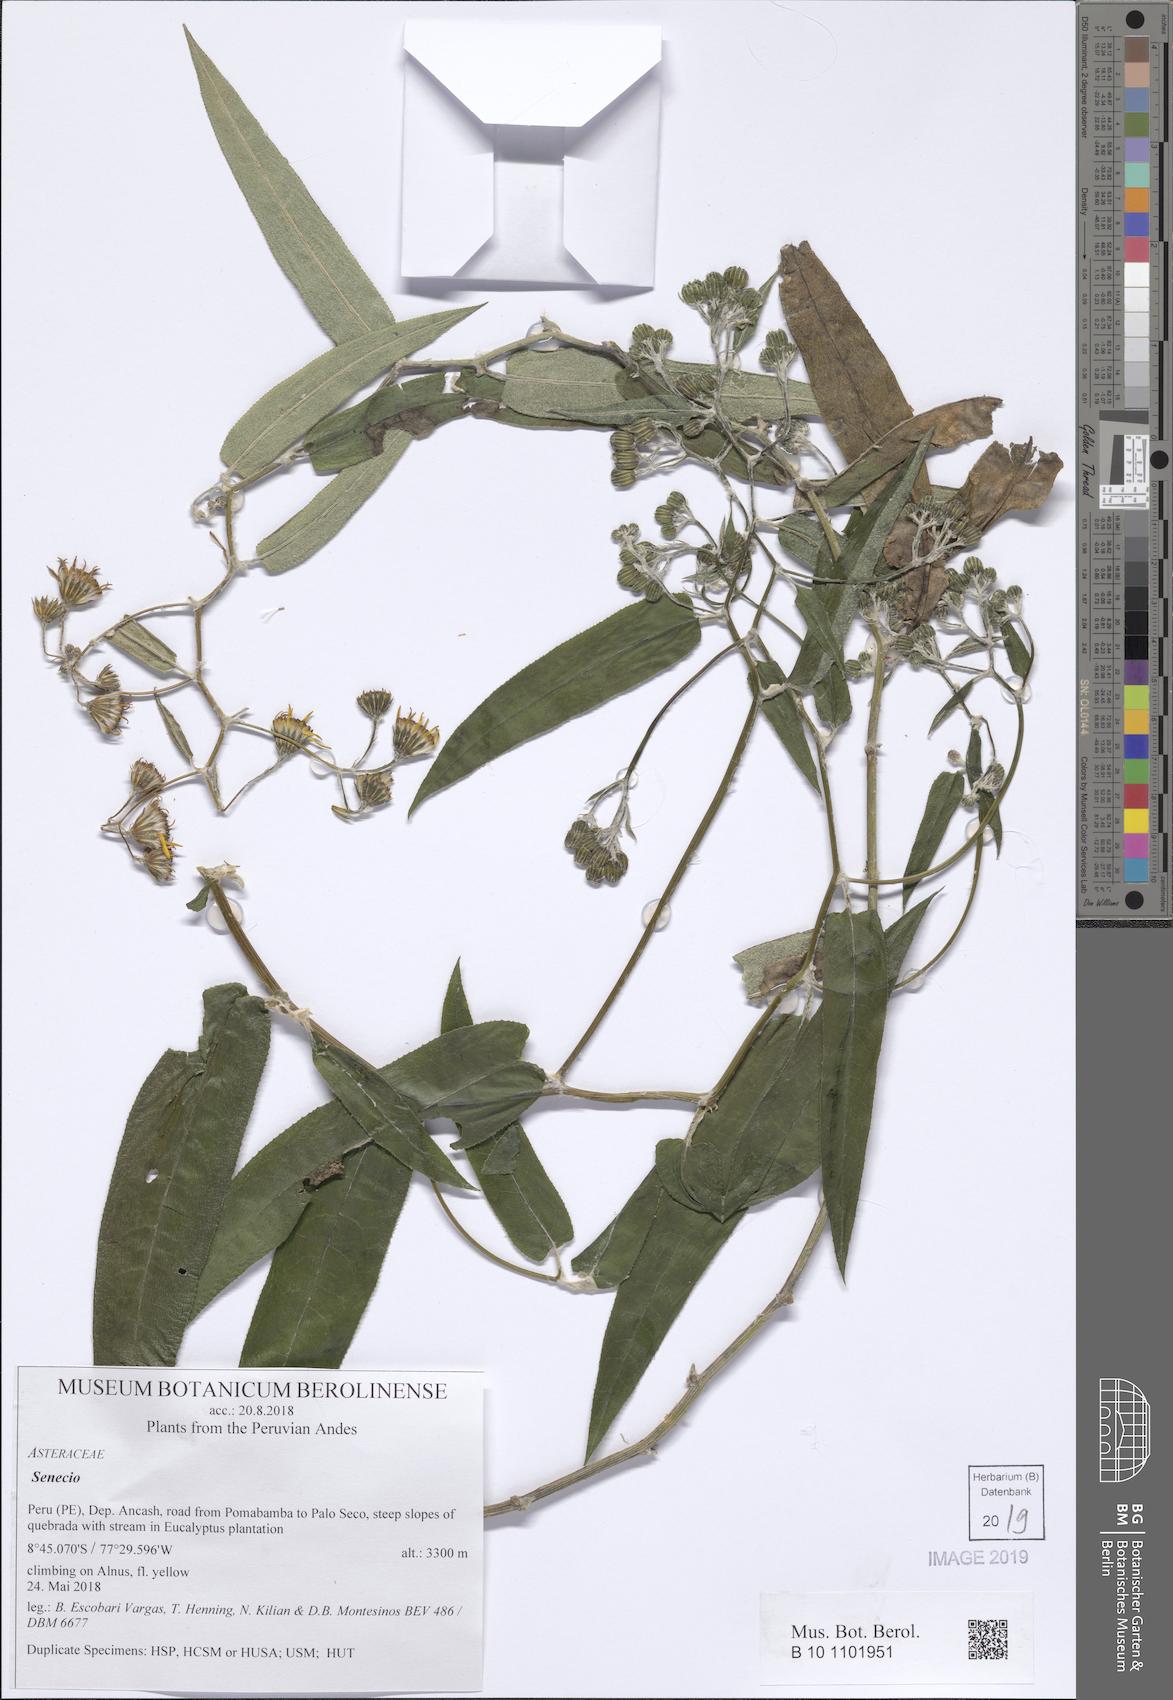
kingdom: Plantae
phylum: Tracheophyta
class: Magnoliopsida
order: Asterales
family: Asteraceae
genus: Senecio
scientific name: Senecio
